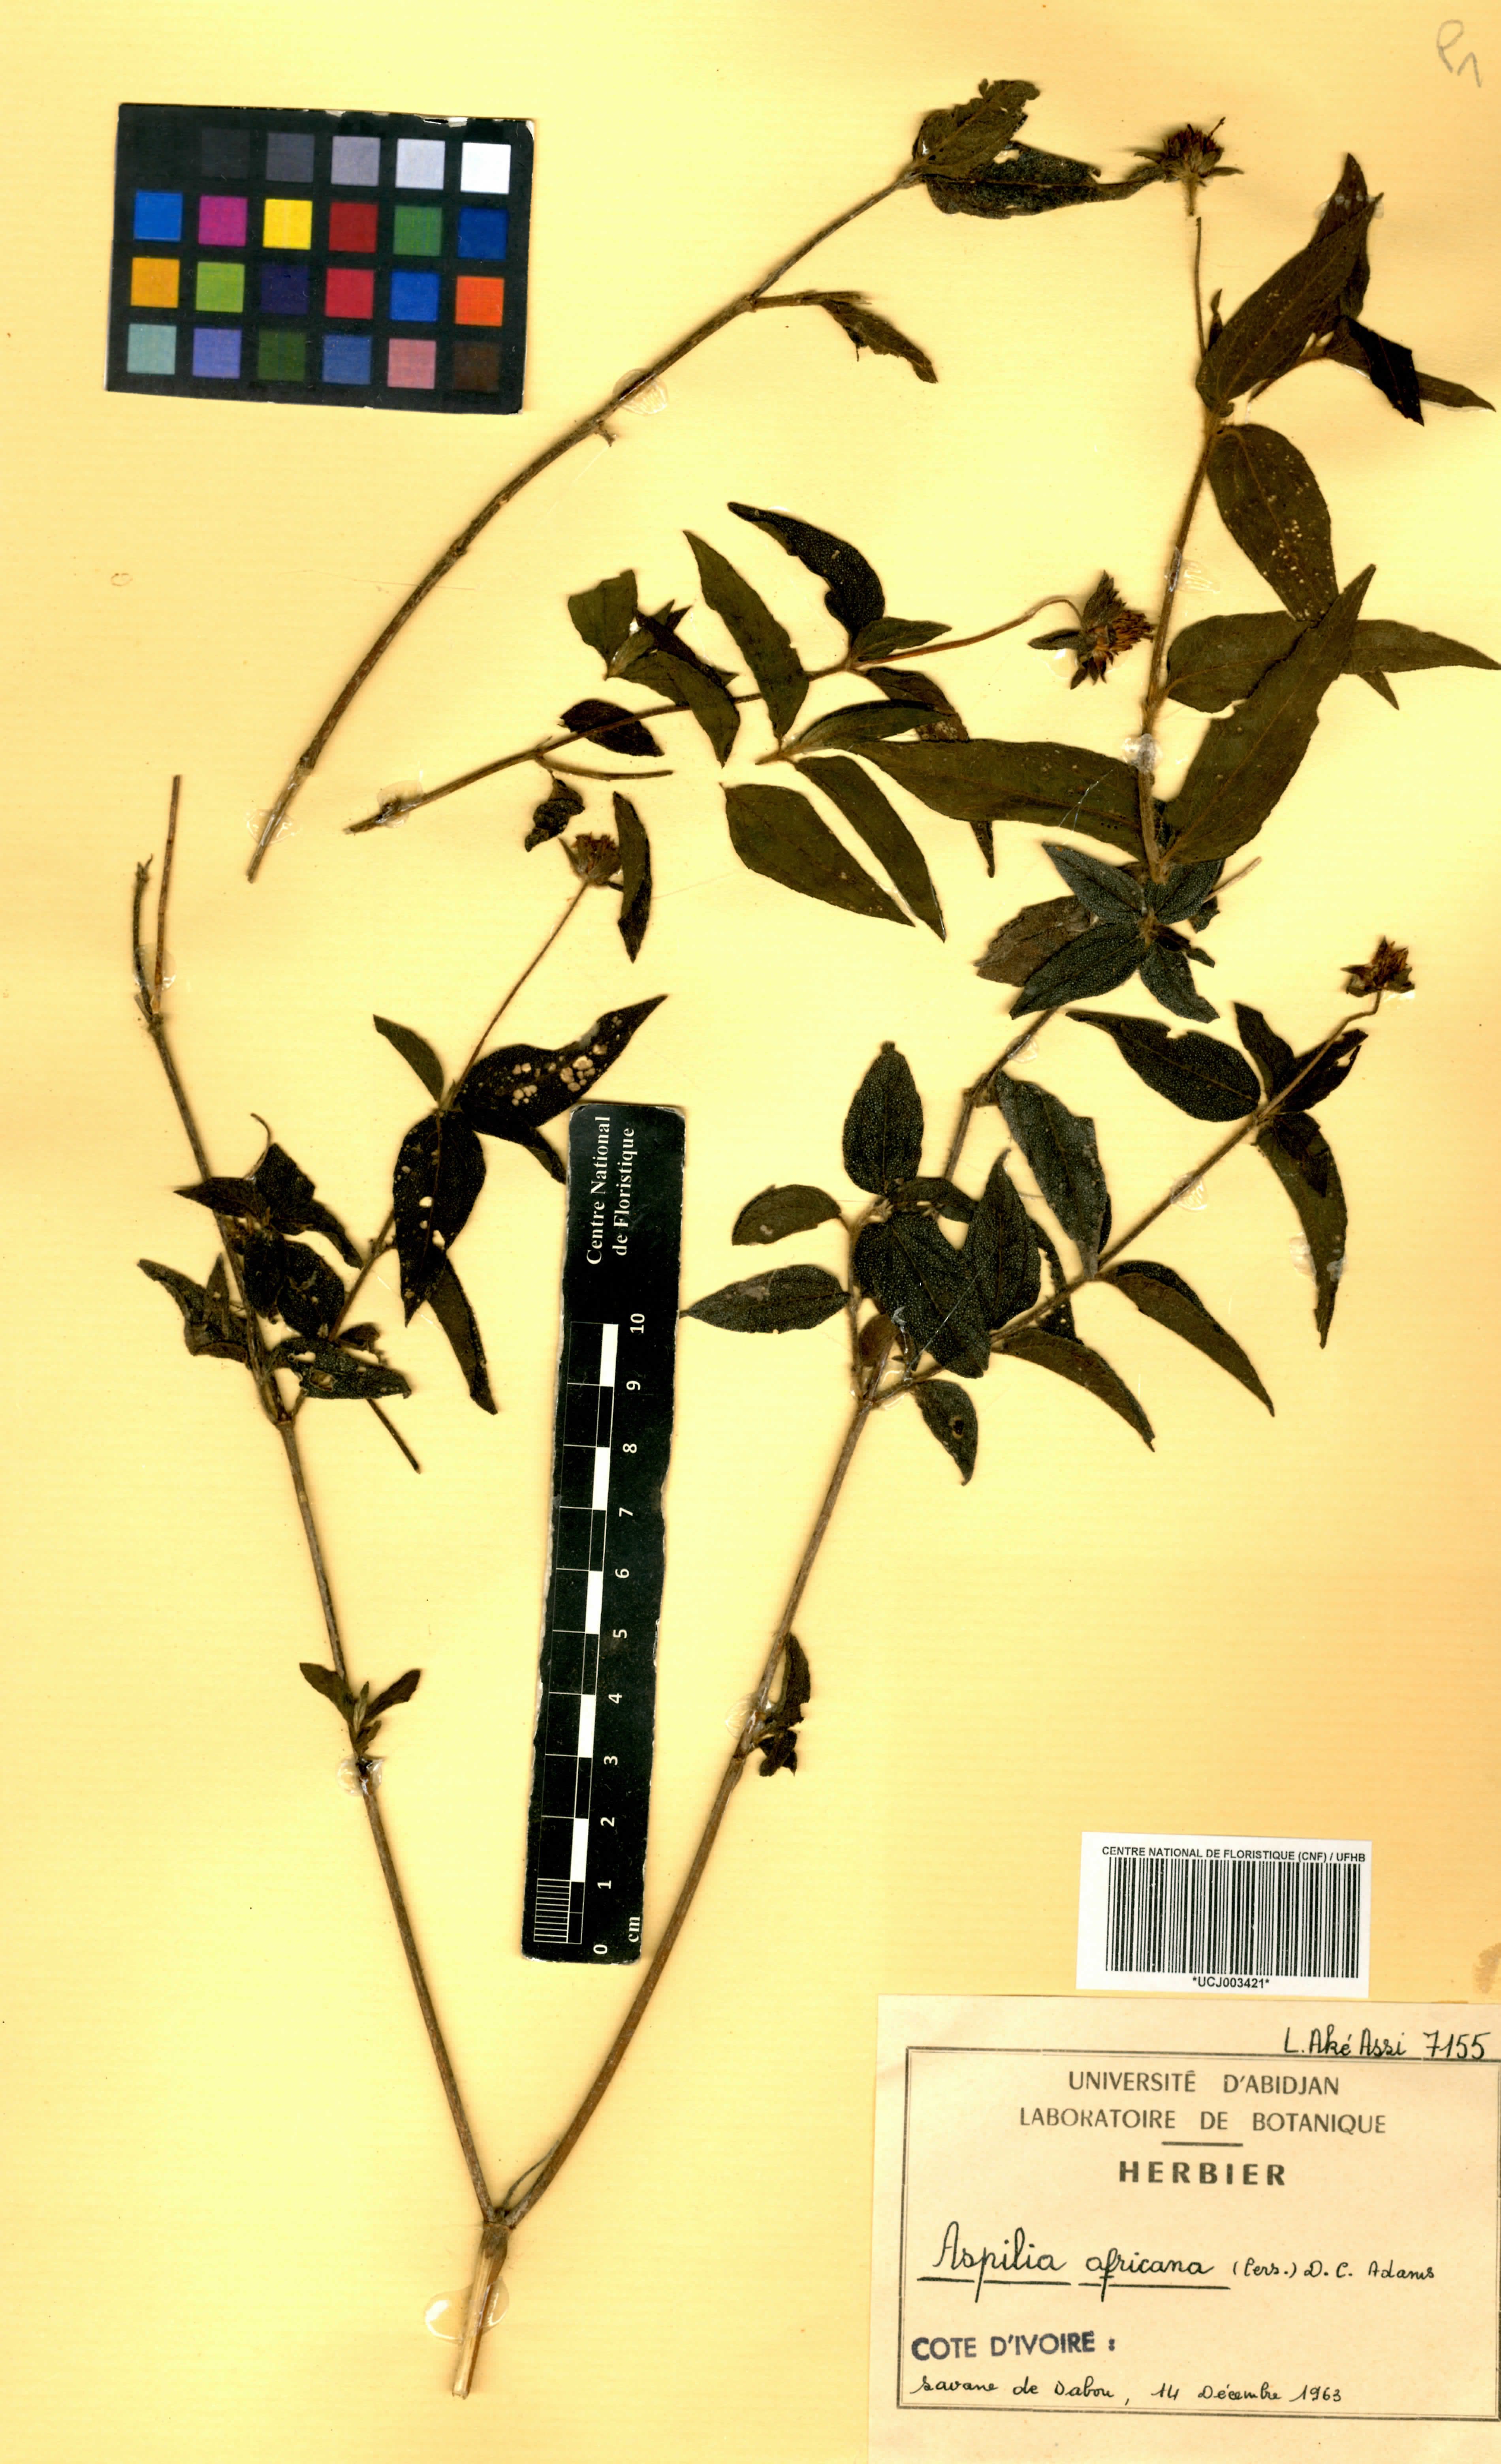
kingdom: Plantae
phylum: Tracheophyta
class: Magnoliopsida
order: Asterales
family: Asteraceae
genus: Aspilia
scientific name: Aspilia africana
